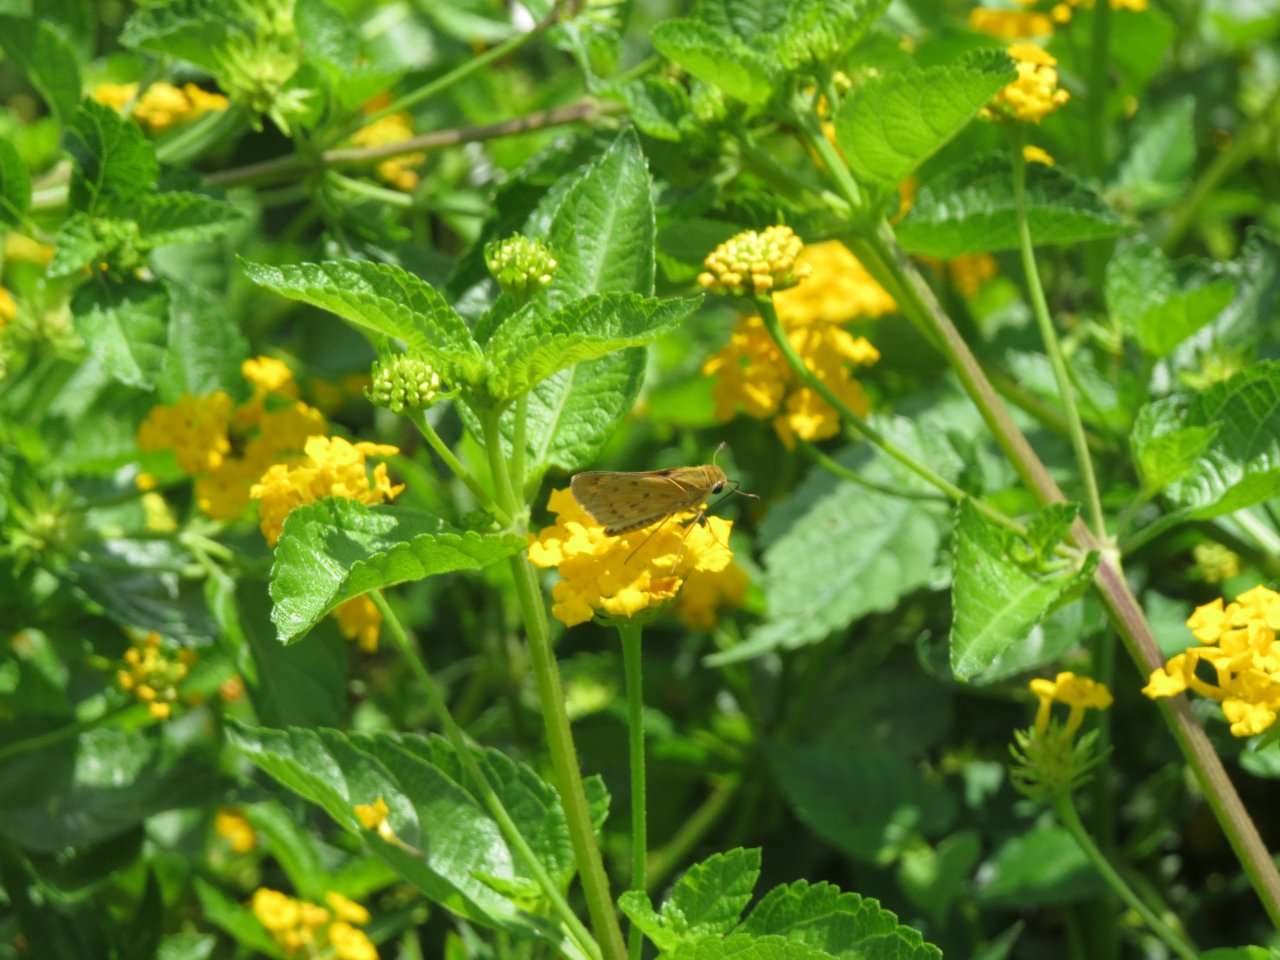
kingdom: Animalia
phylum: Arthropoda
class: Insecta
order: Lepidoptera
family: Hesperiidae
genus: Hylephila
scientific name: Hylephila phyleus
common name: Fiery Skipper
